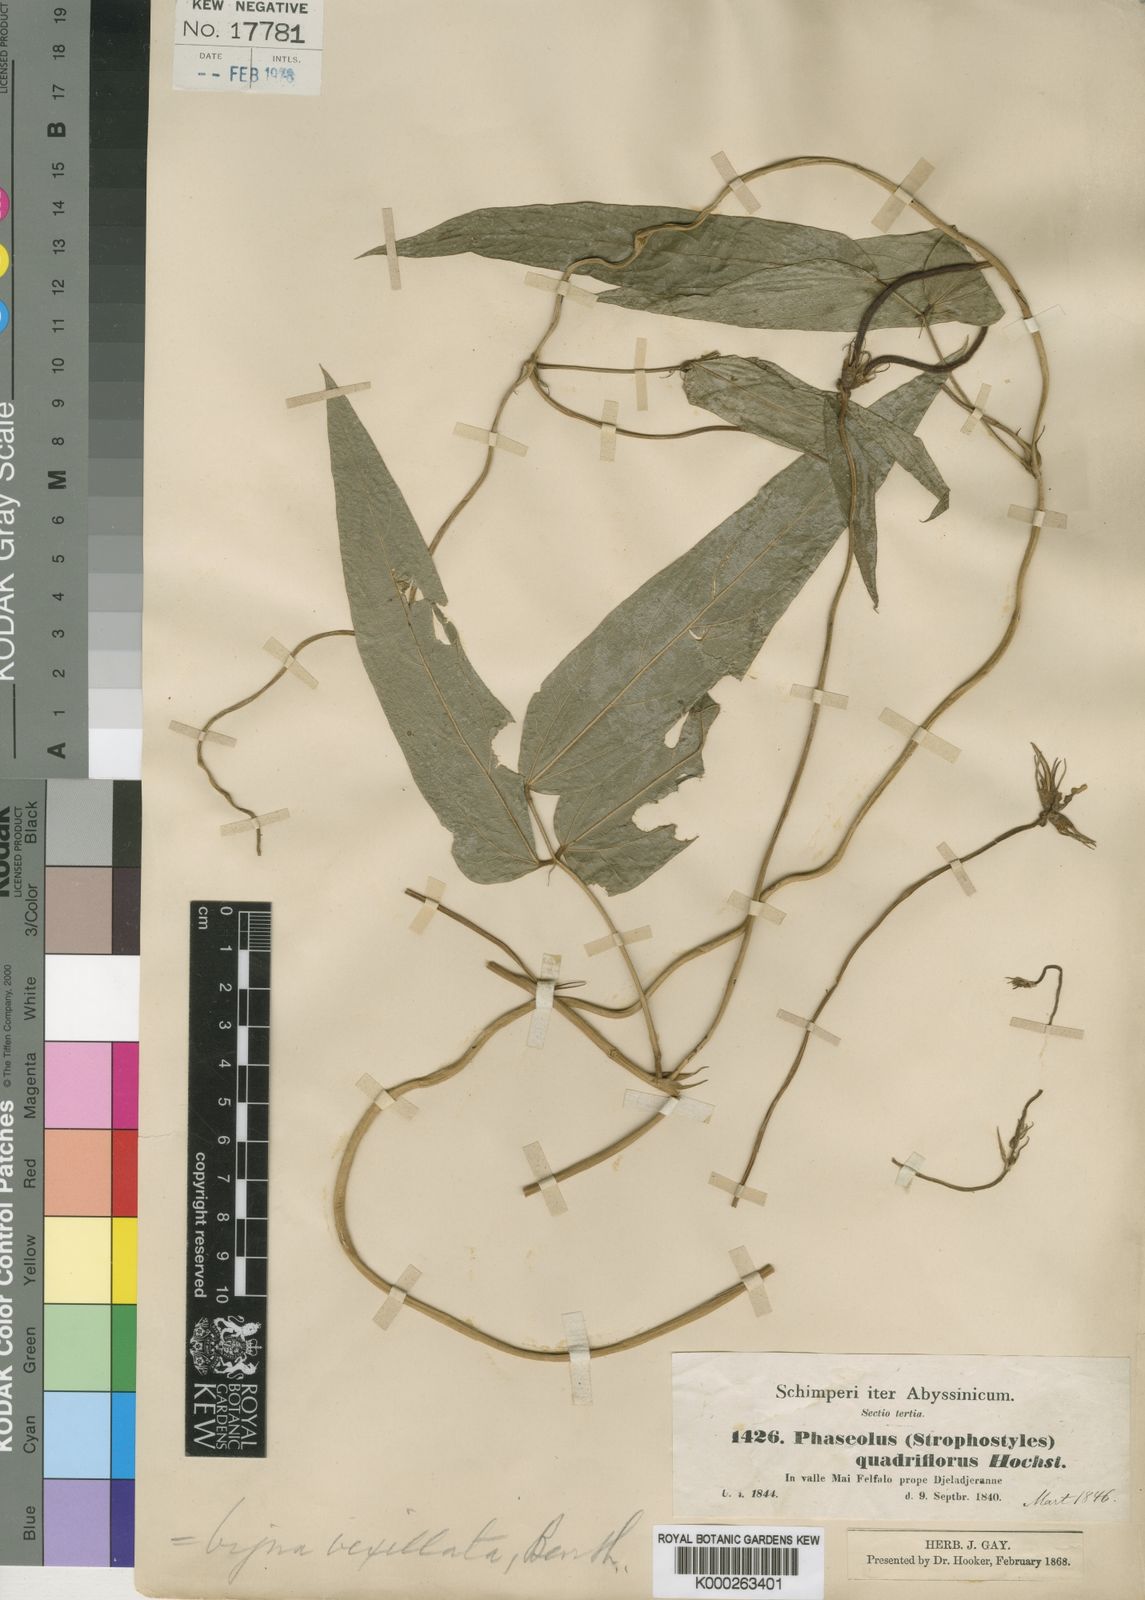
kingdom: Plantae
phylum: Tracheophyta
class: Magnoliopsida
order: Fabales
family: Fabaceae
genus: Vigna
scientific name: Vigna vexillata
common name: Zombi pea
